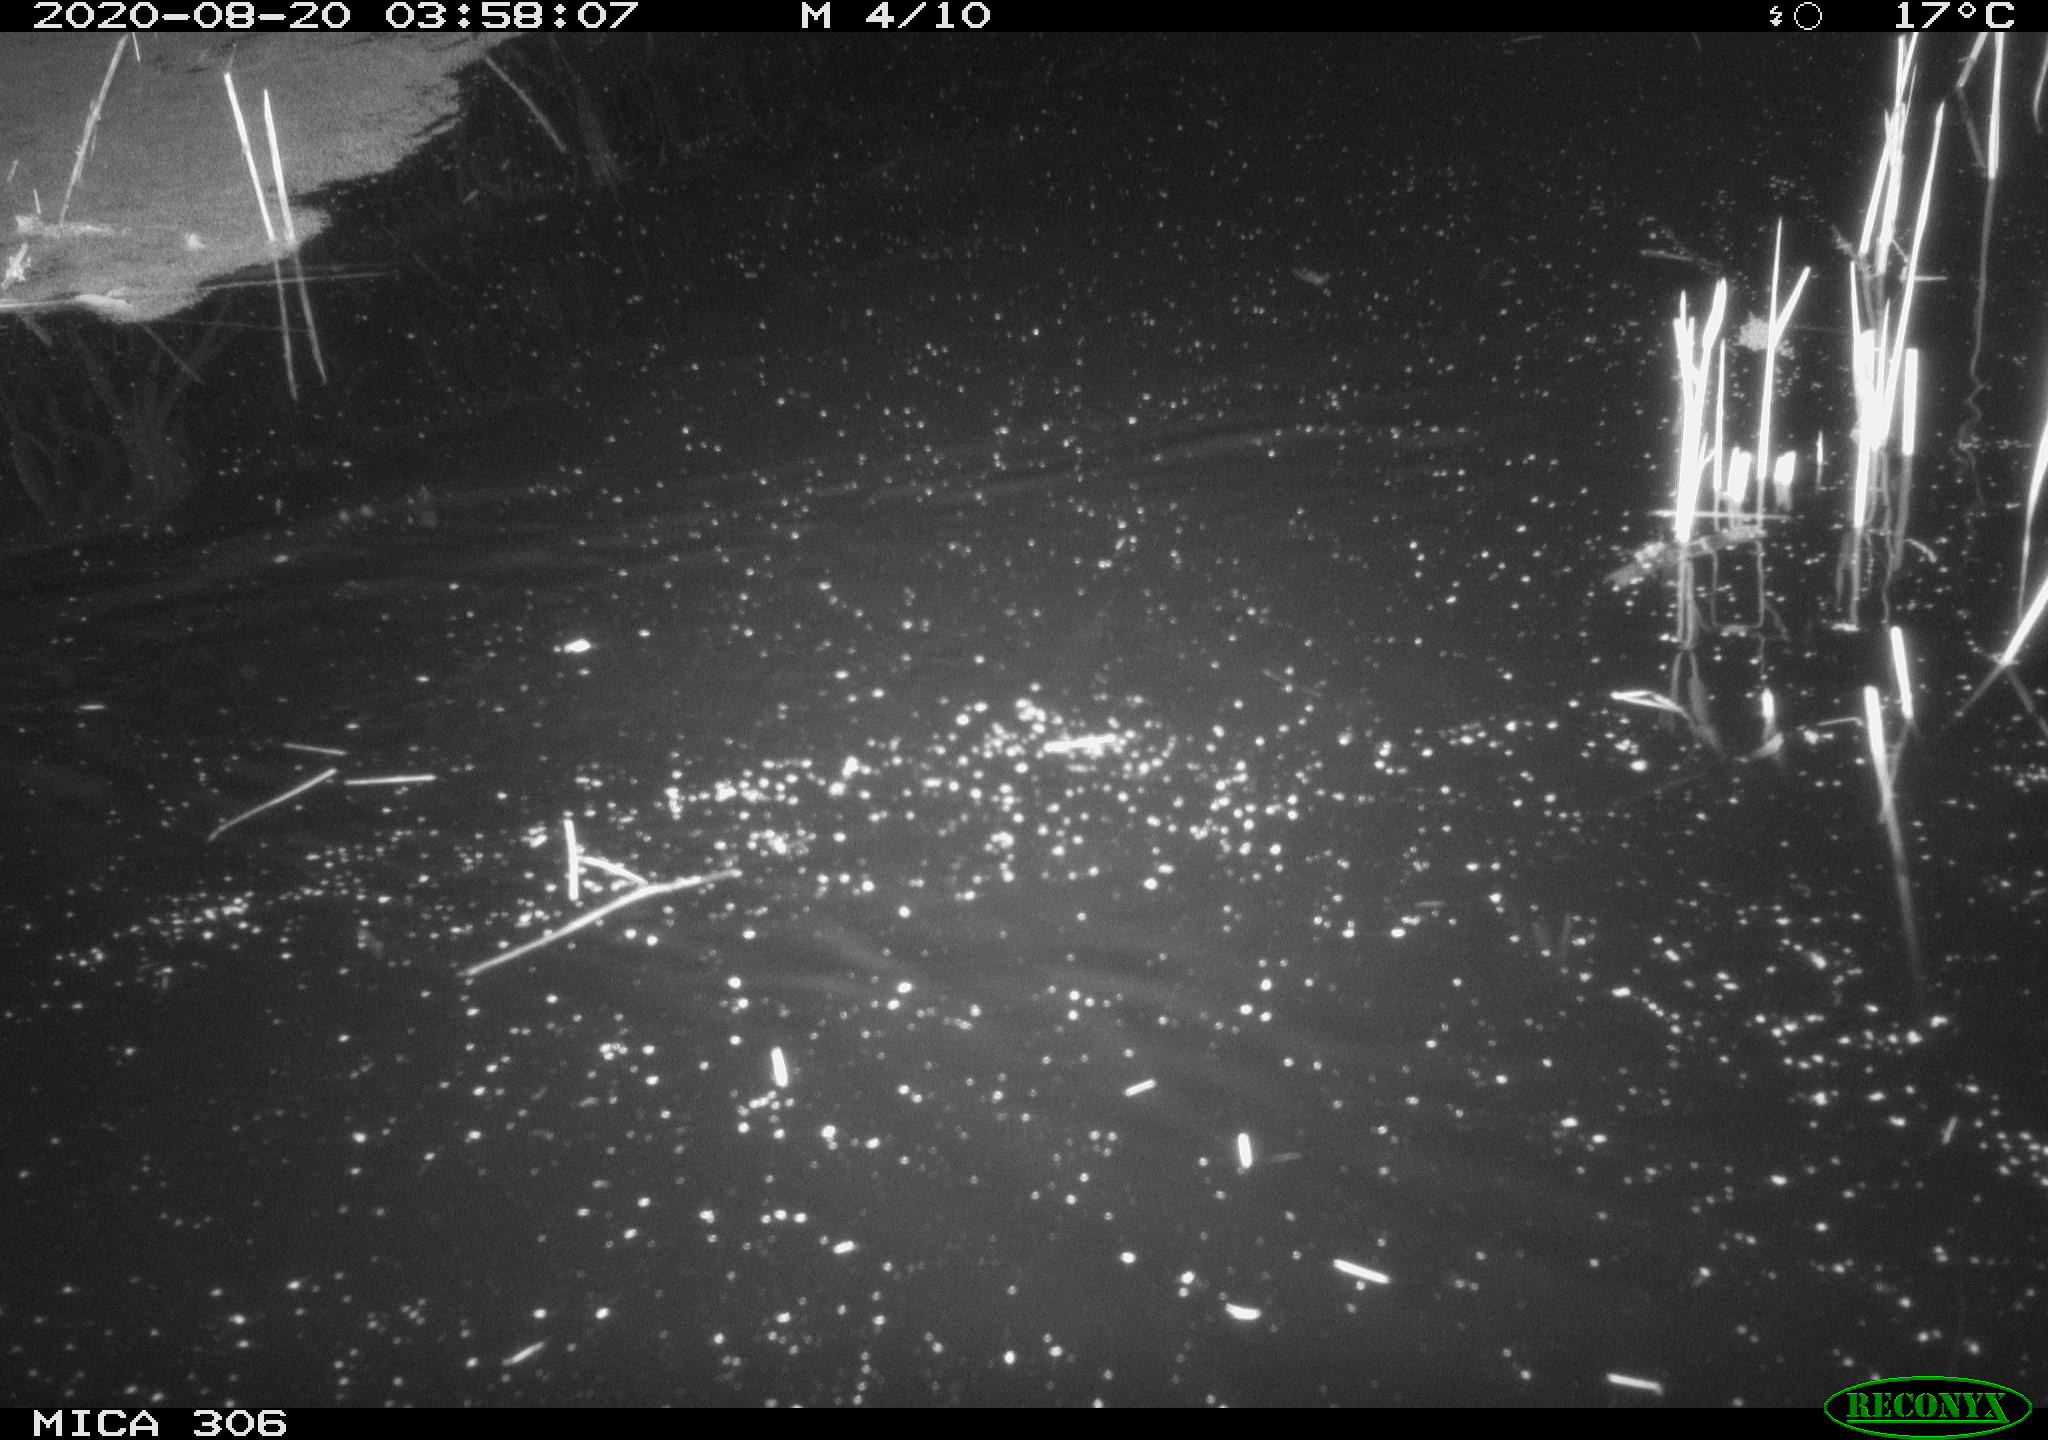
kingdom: Animalia
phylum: Chordata
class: Mammalia
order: Rodentia
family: Muridae
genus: Rattus
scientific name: Rattus norvegicus
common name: Brown rat
